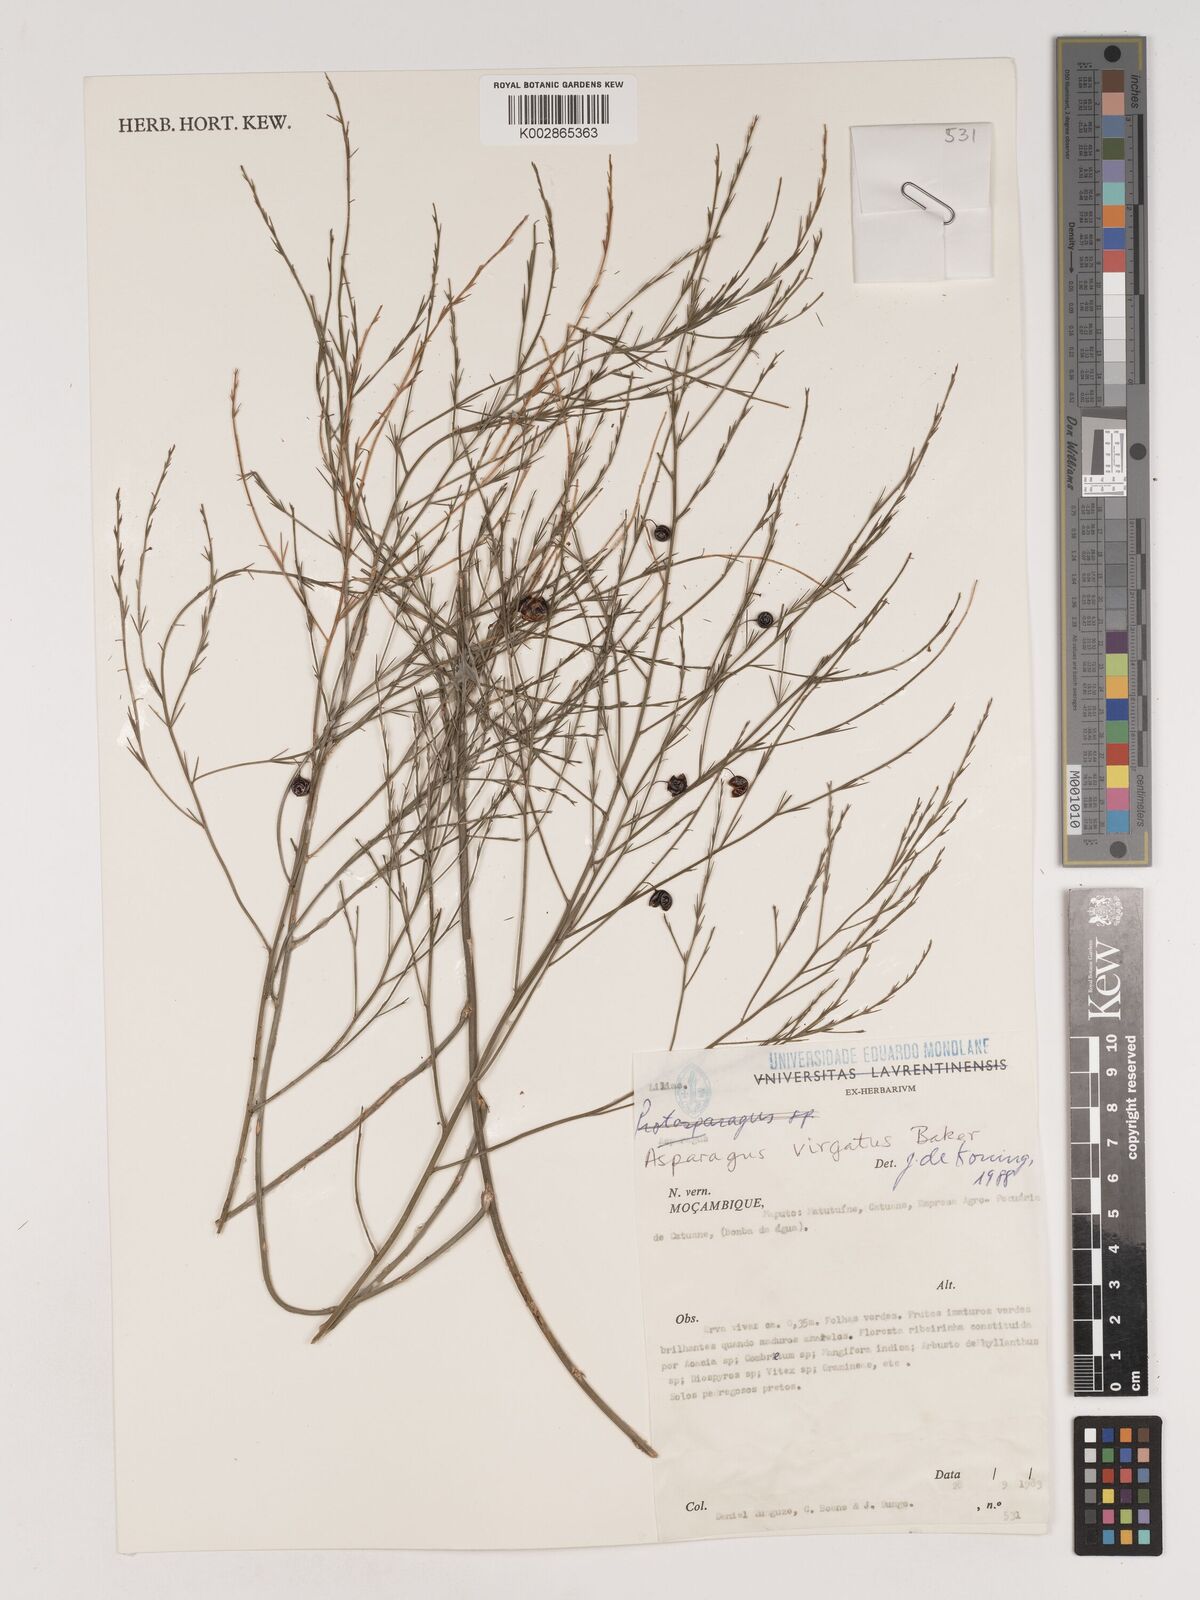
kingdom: Plantae
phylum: Tracheophyta
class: Liliopsida
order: Asparagales
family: Asparagaceae
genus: Asparagus
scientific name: Asparagus virgatus
